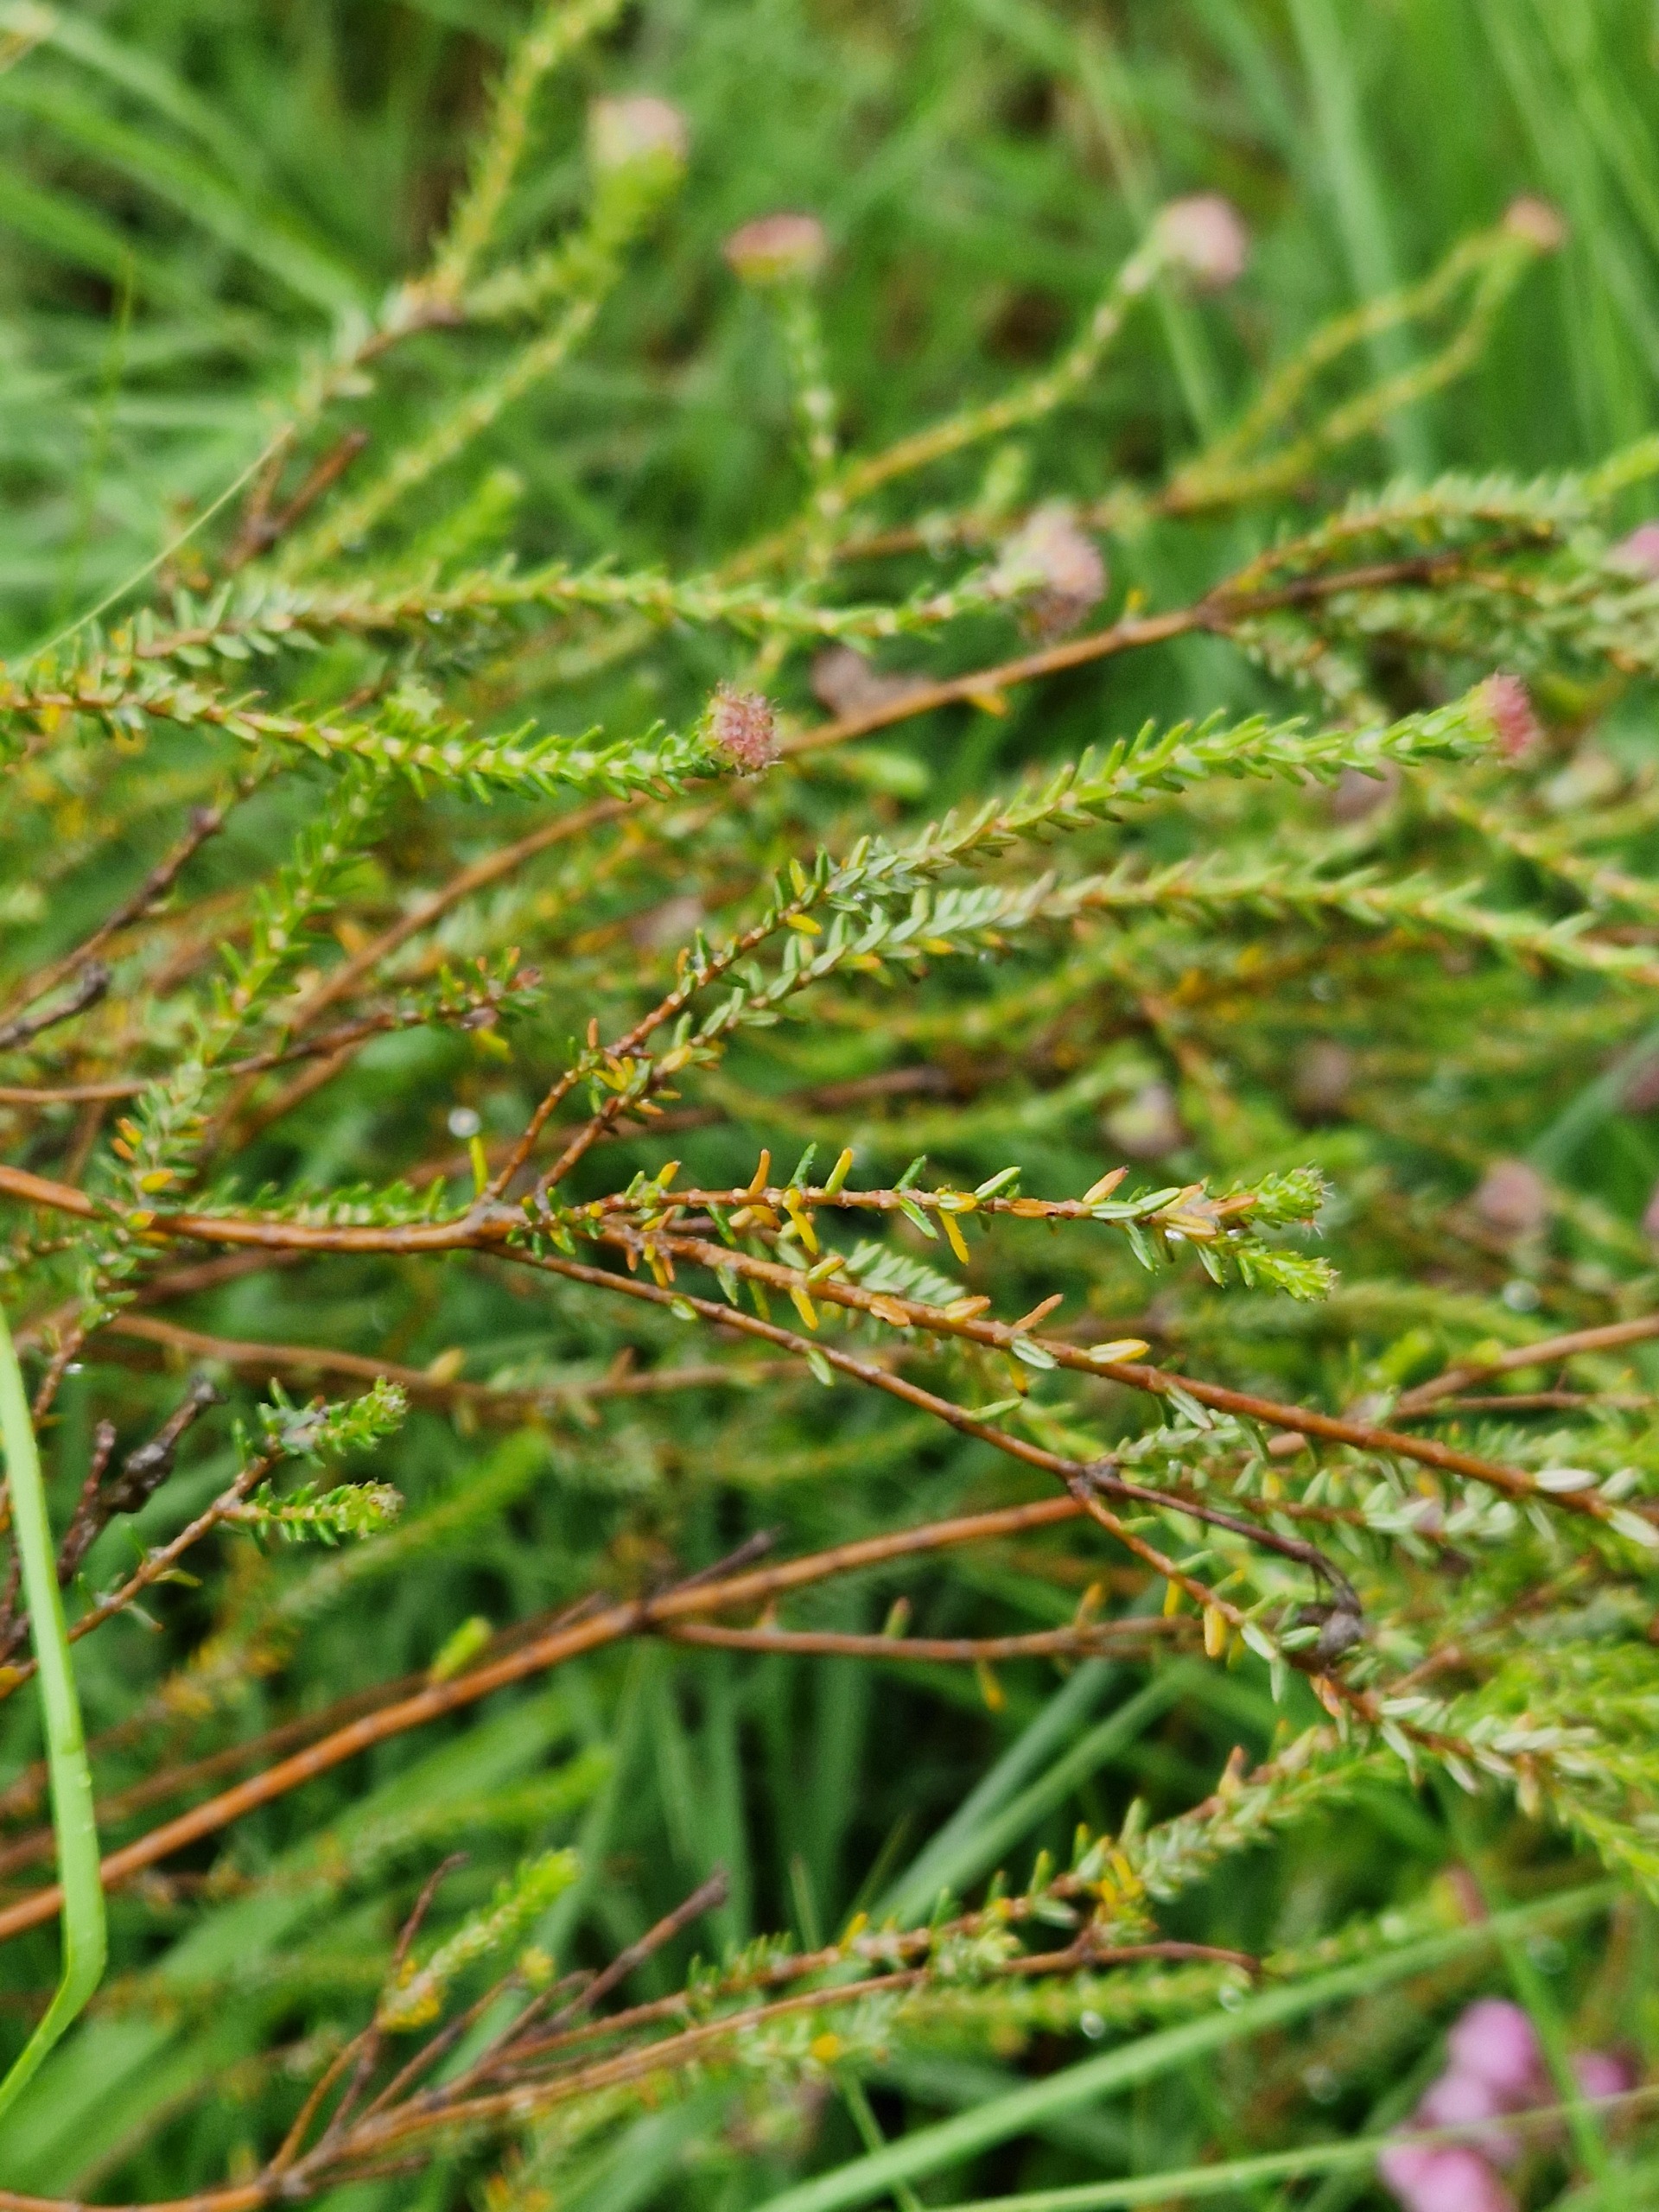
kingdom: Plantae
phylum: Tracheophyta
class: Magnoliopsida
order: Ericales
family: Ericaceae
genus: Erica
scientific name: Erica tetralix
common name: Klokkelyng
